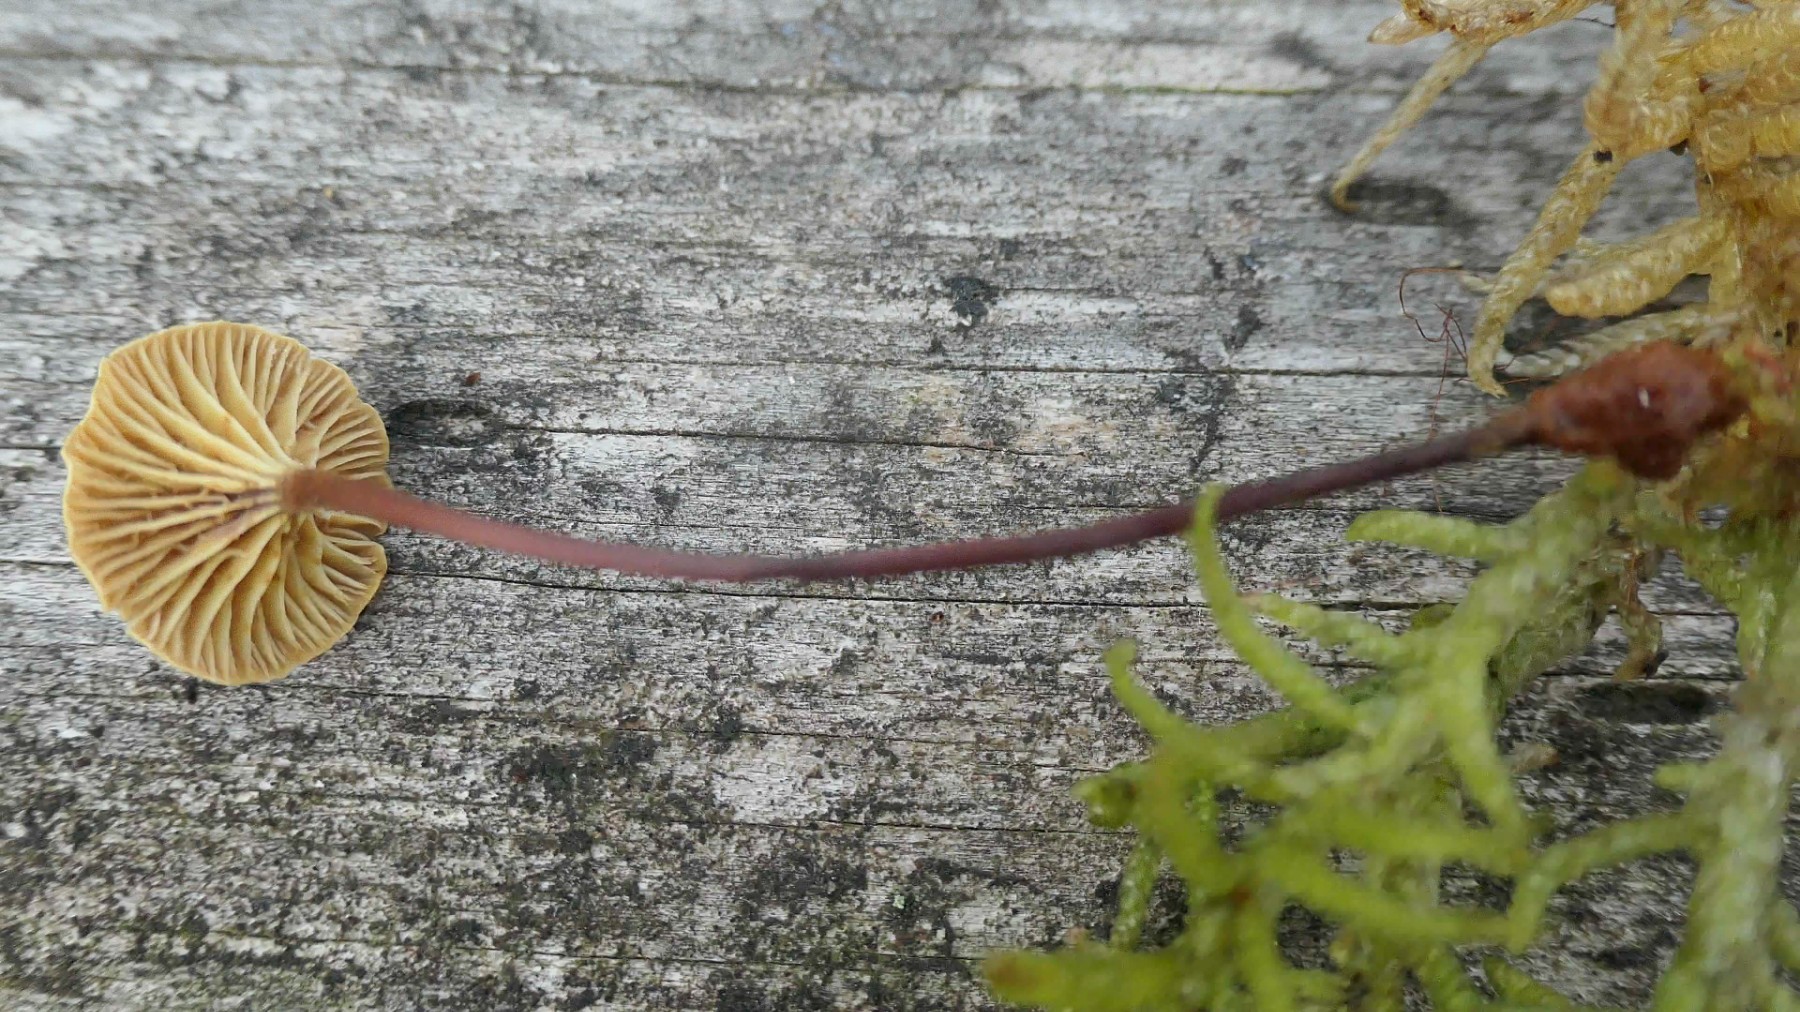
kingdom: Fungi
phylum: Basidiomycota
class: Agaricomycetes
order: Agaricales
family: Mycenaceae
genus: Xeromphalina
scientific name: Xeromphalina cauticinalis
